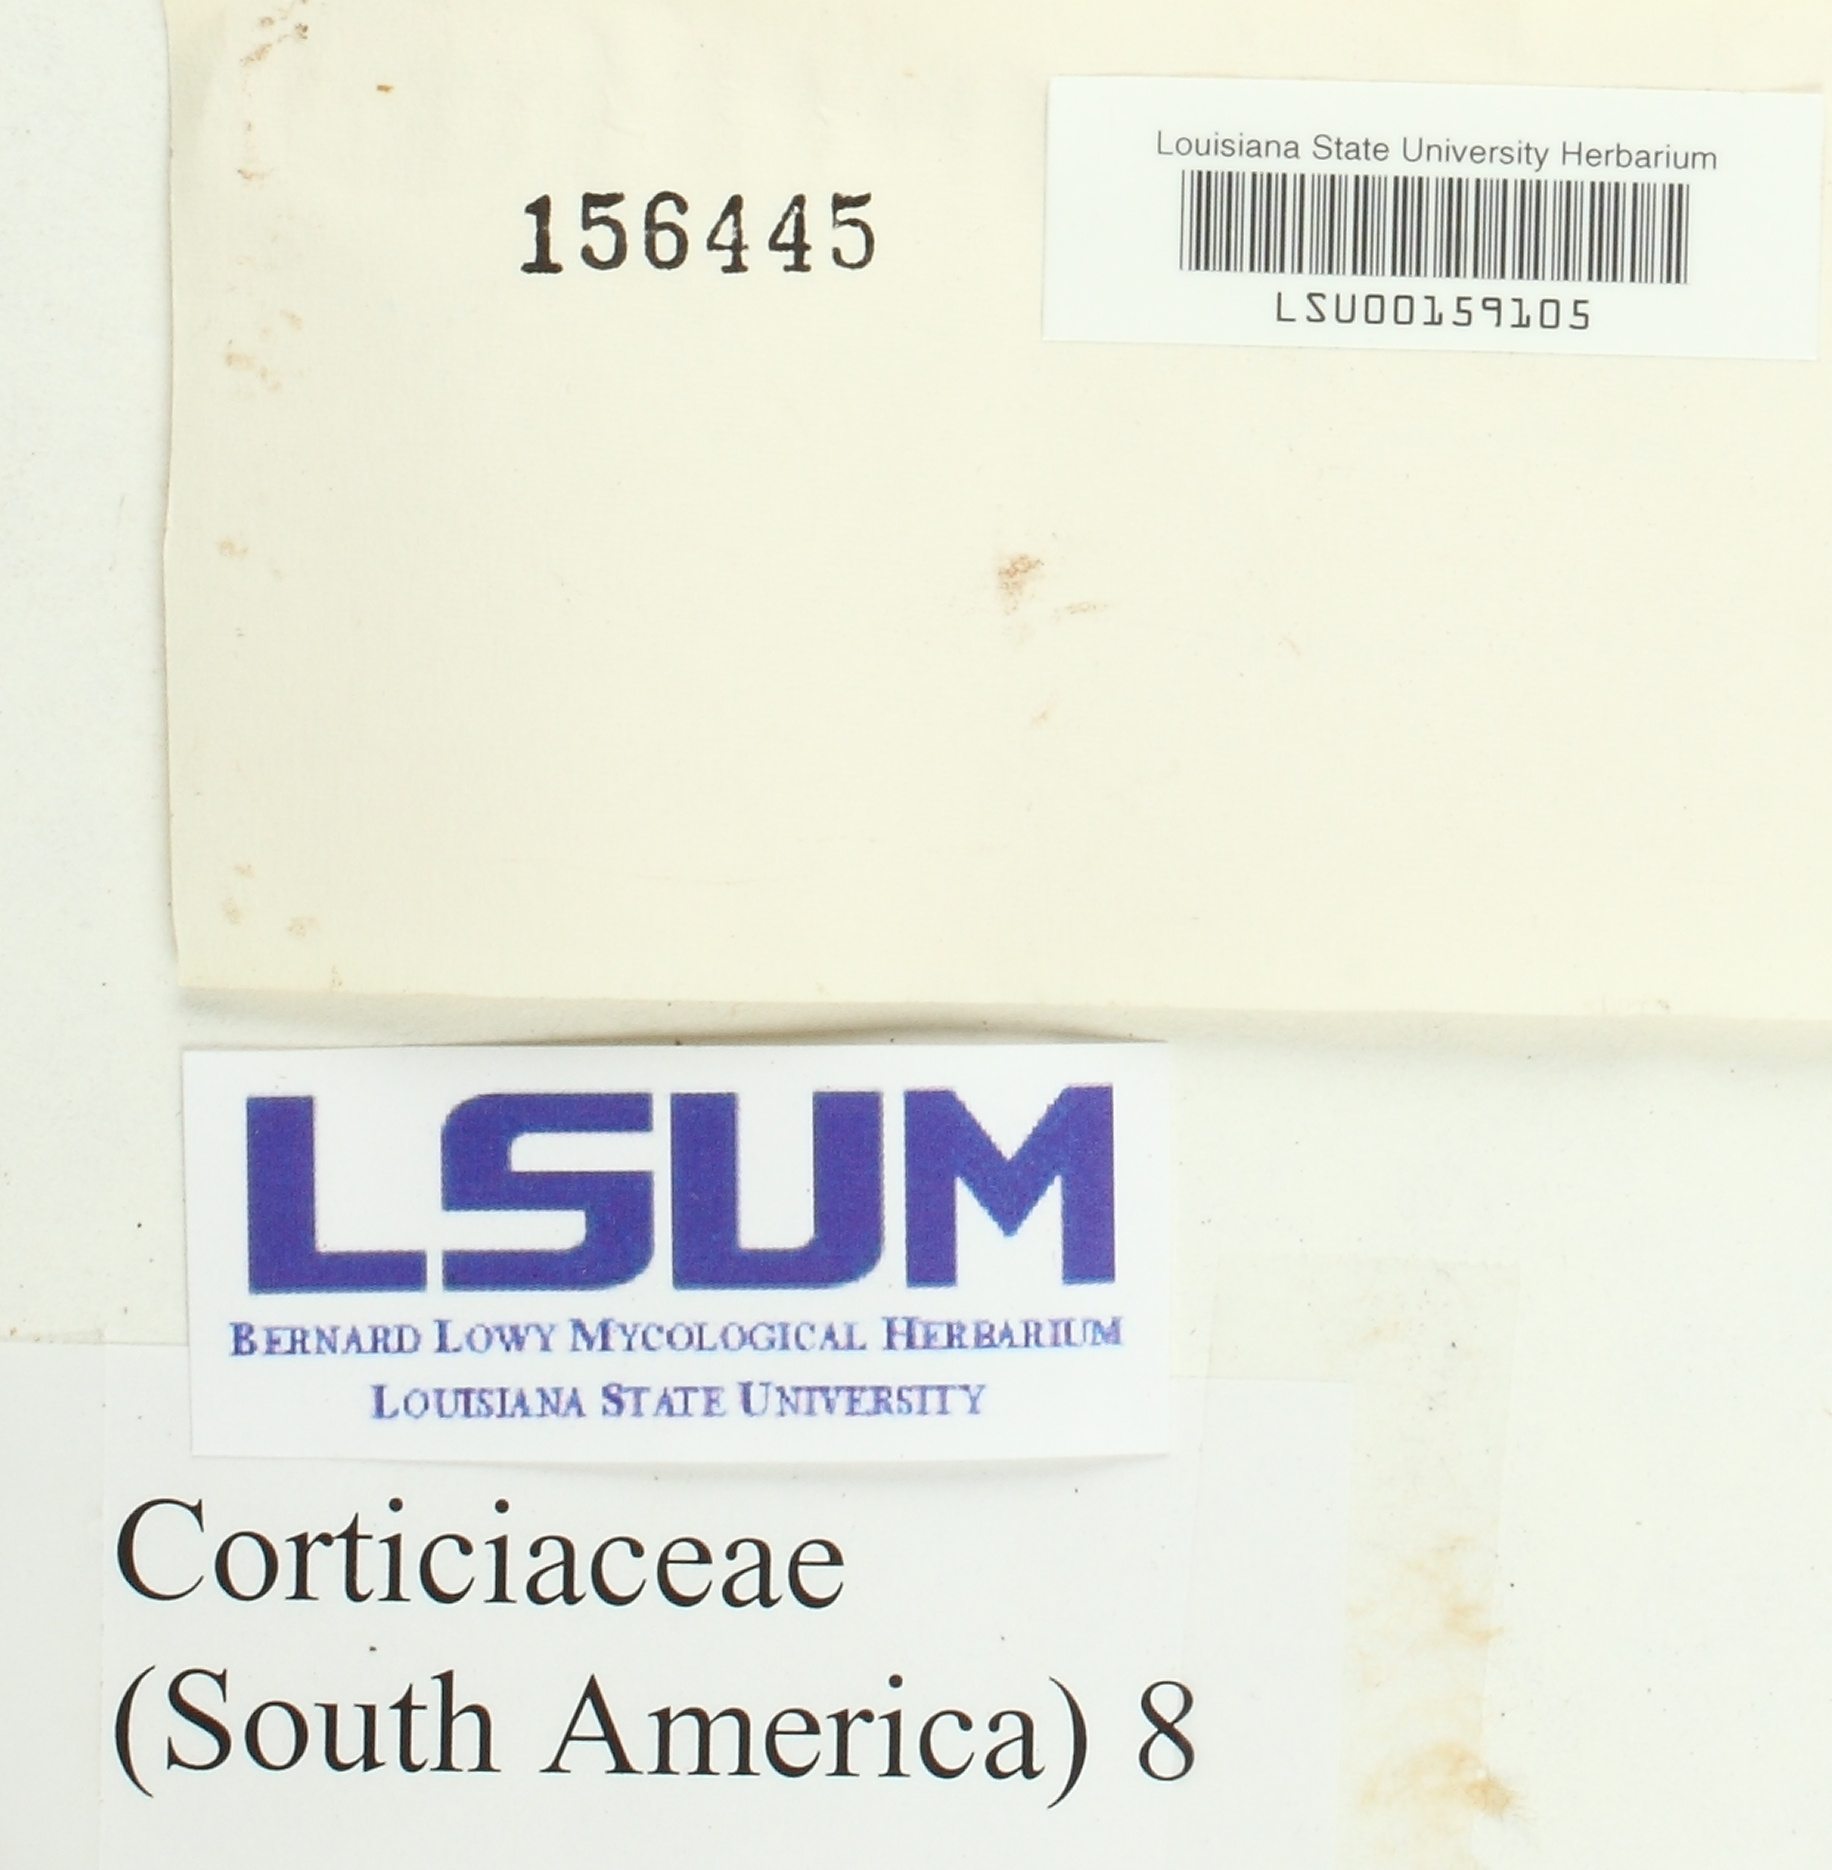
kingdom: Fungi
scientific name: Fungi
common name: Fungi
